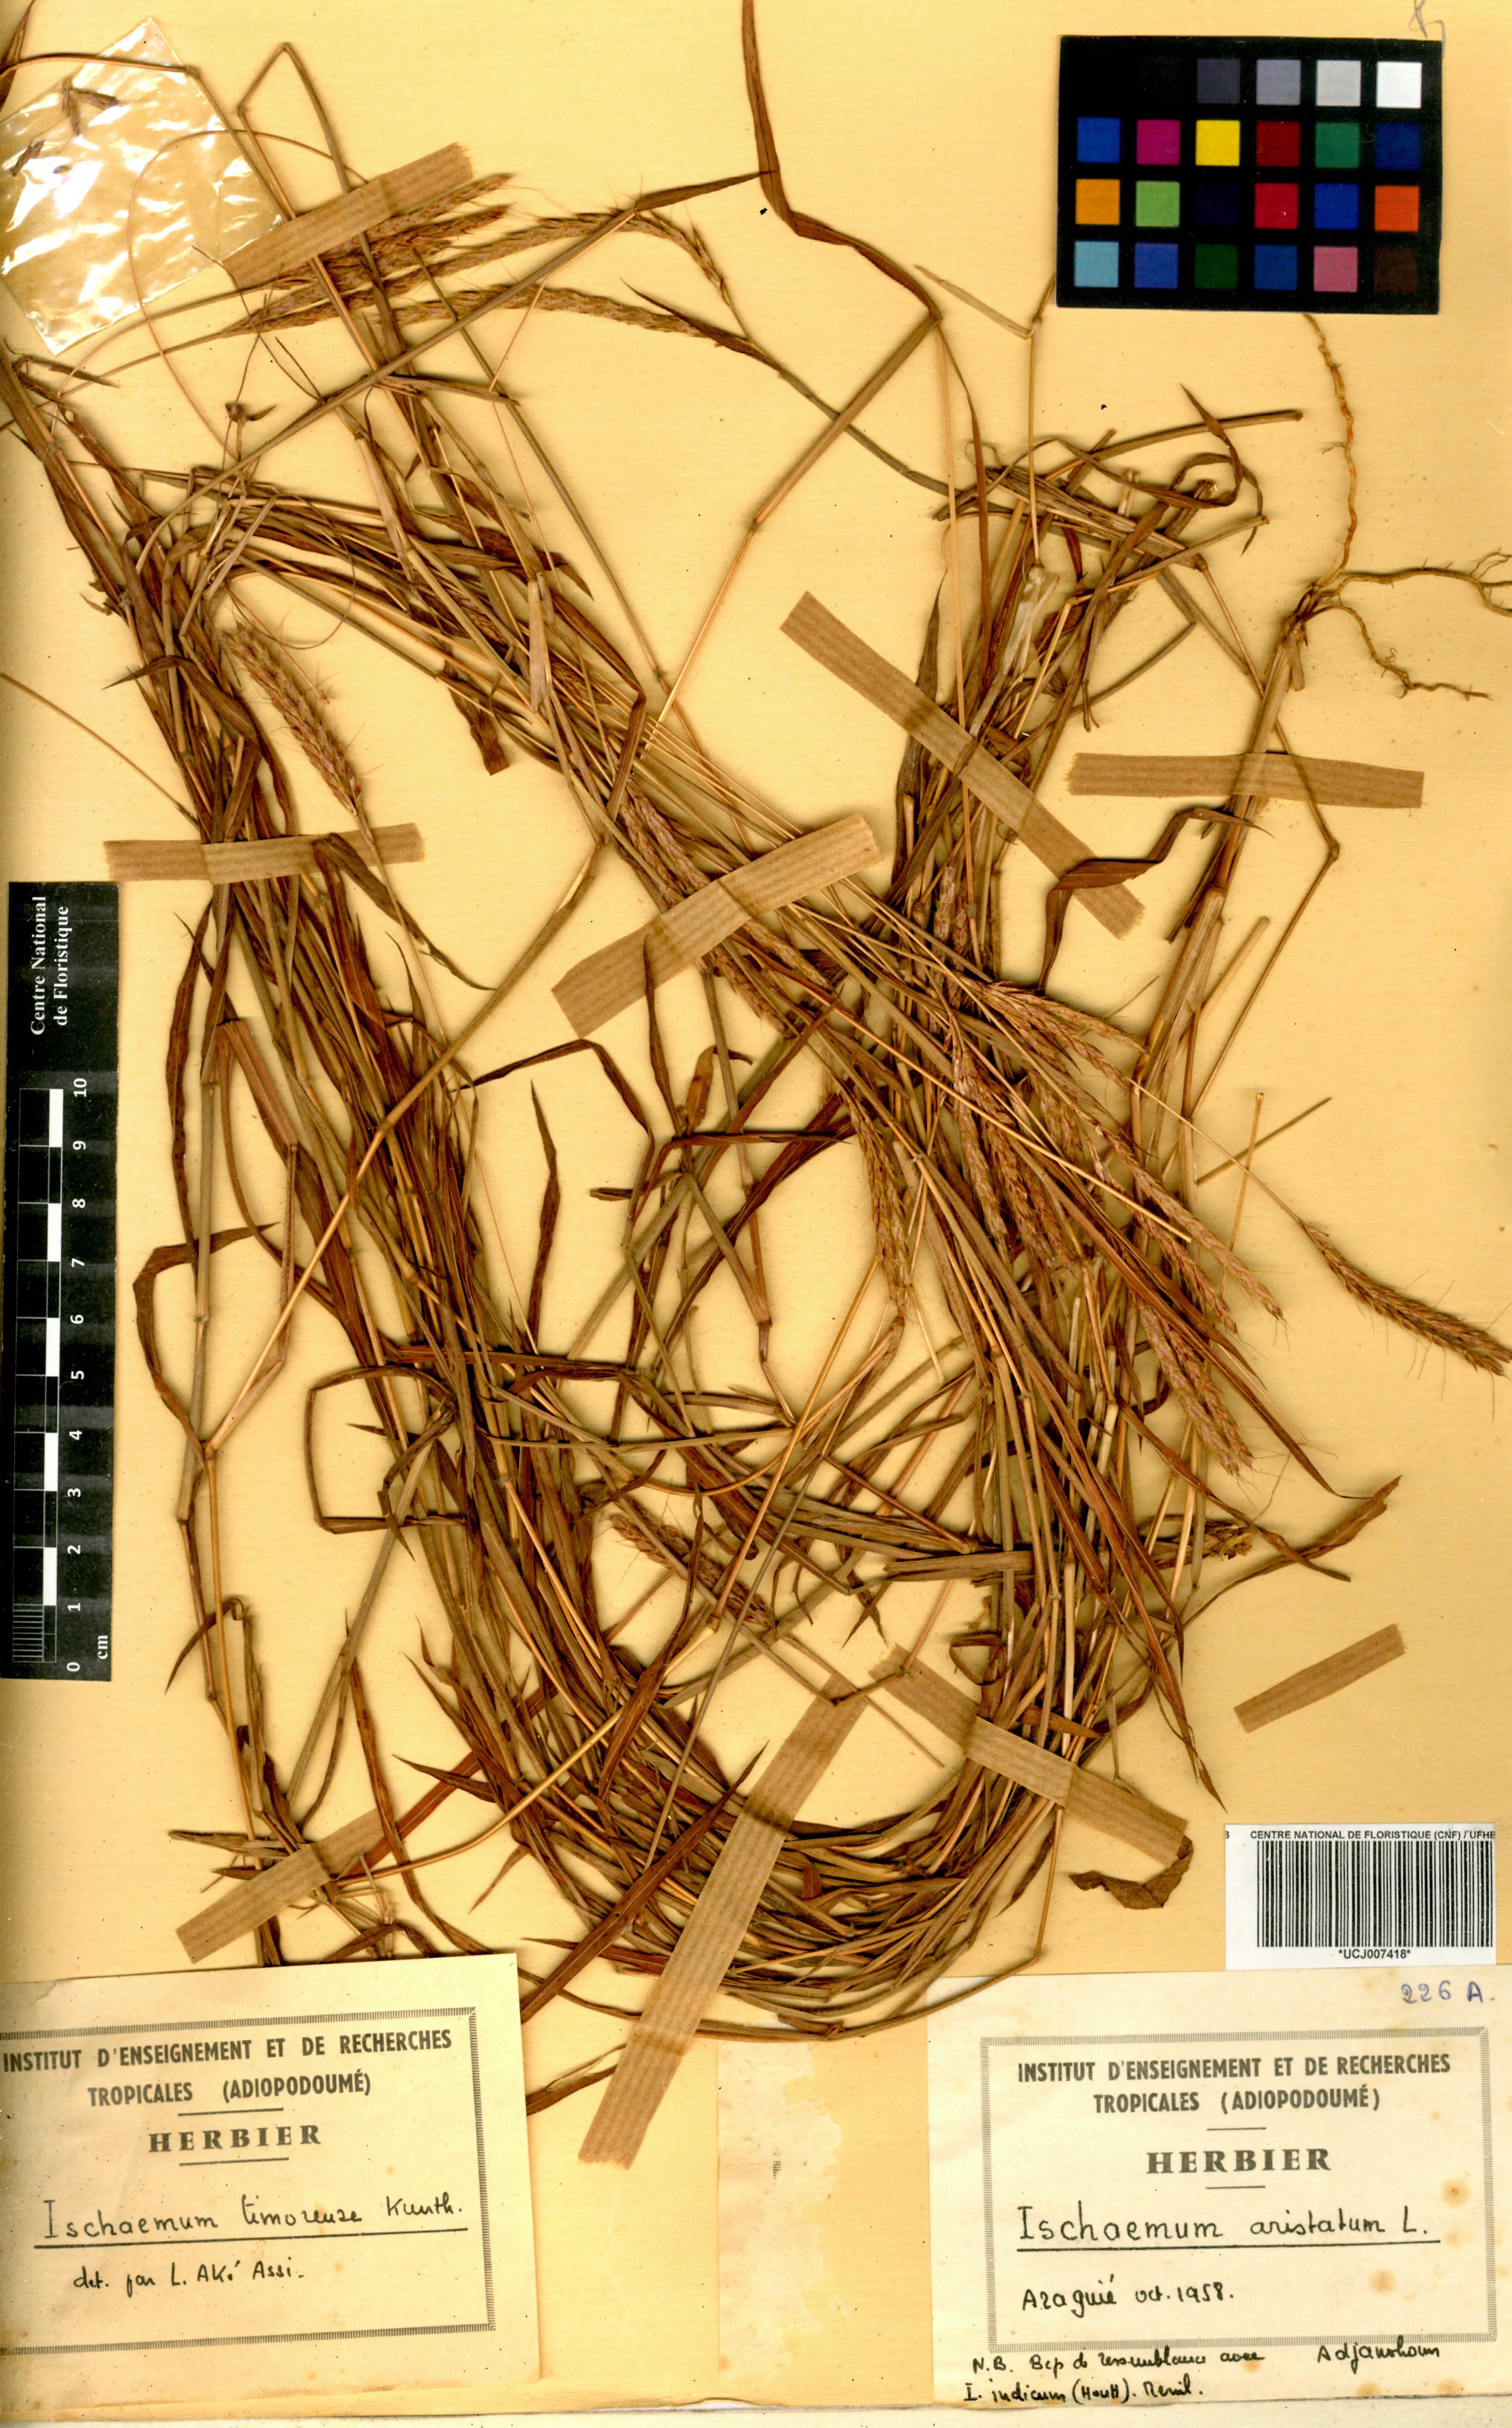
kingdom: Plantae
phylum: Tracheophyta
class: Liliopsida
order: Poales
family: Poaceae
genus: Ischaemum
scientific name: Ischaemum aristatum
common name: Toco grass
